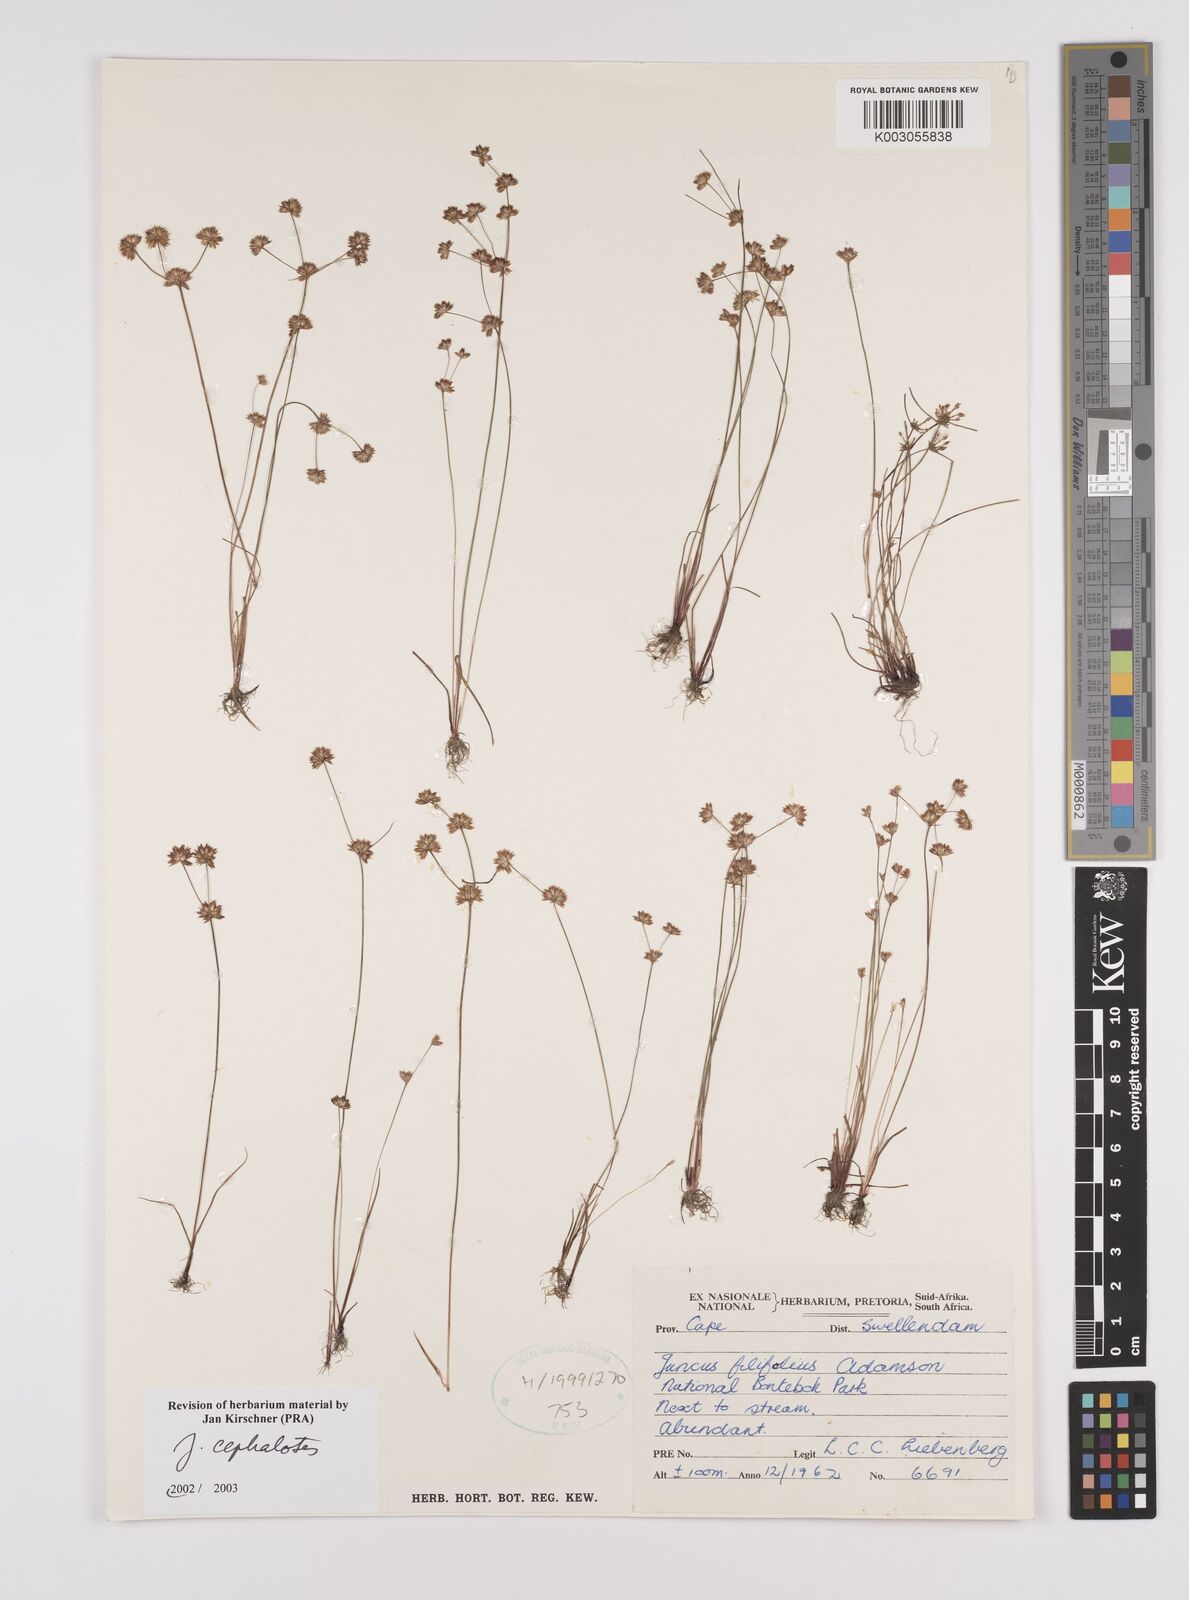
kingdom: Plantae
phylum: Tracheophyta
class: Liliopsida
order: Poales
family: Juncaceae
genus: Juncus
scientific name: Juncus cephalotes
